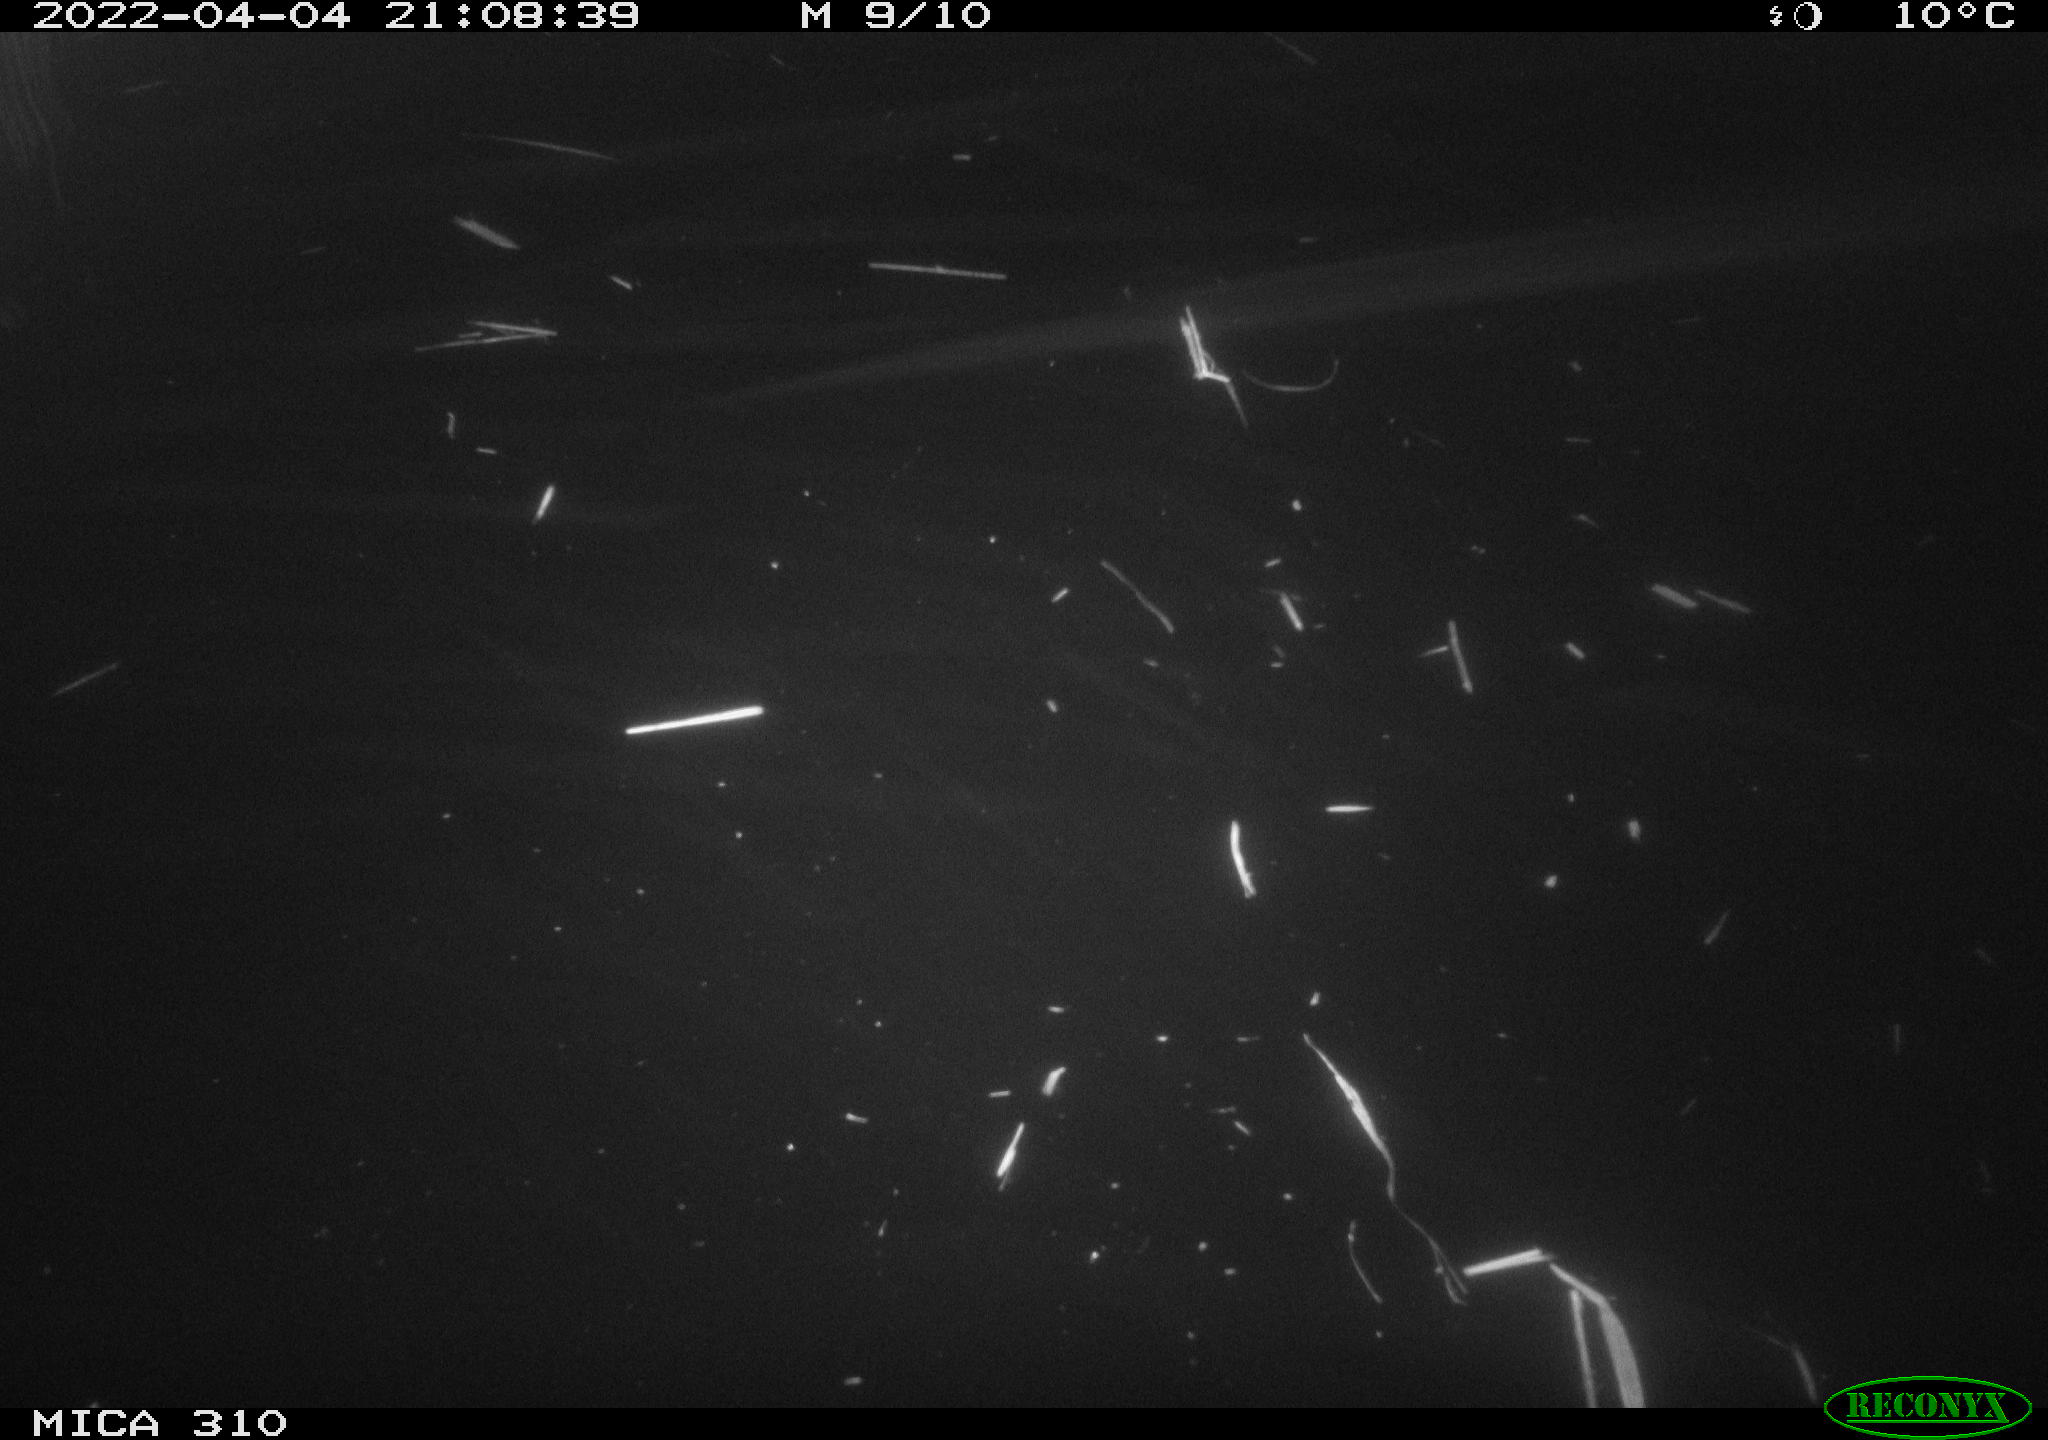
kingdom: Animalia
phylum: Chordata
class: Aves
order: Anseriformes
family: Anatidae
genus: Anas
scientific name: Anas platyrhynchos
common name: Mallard
